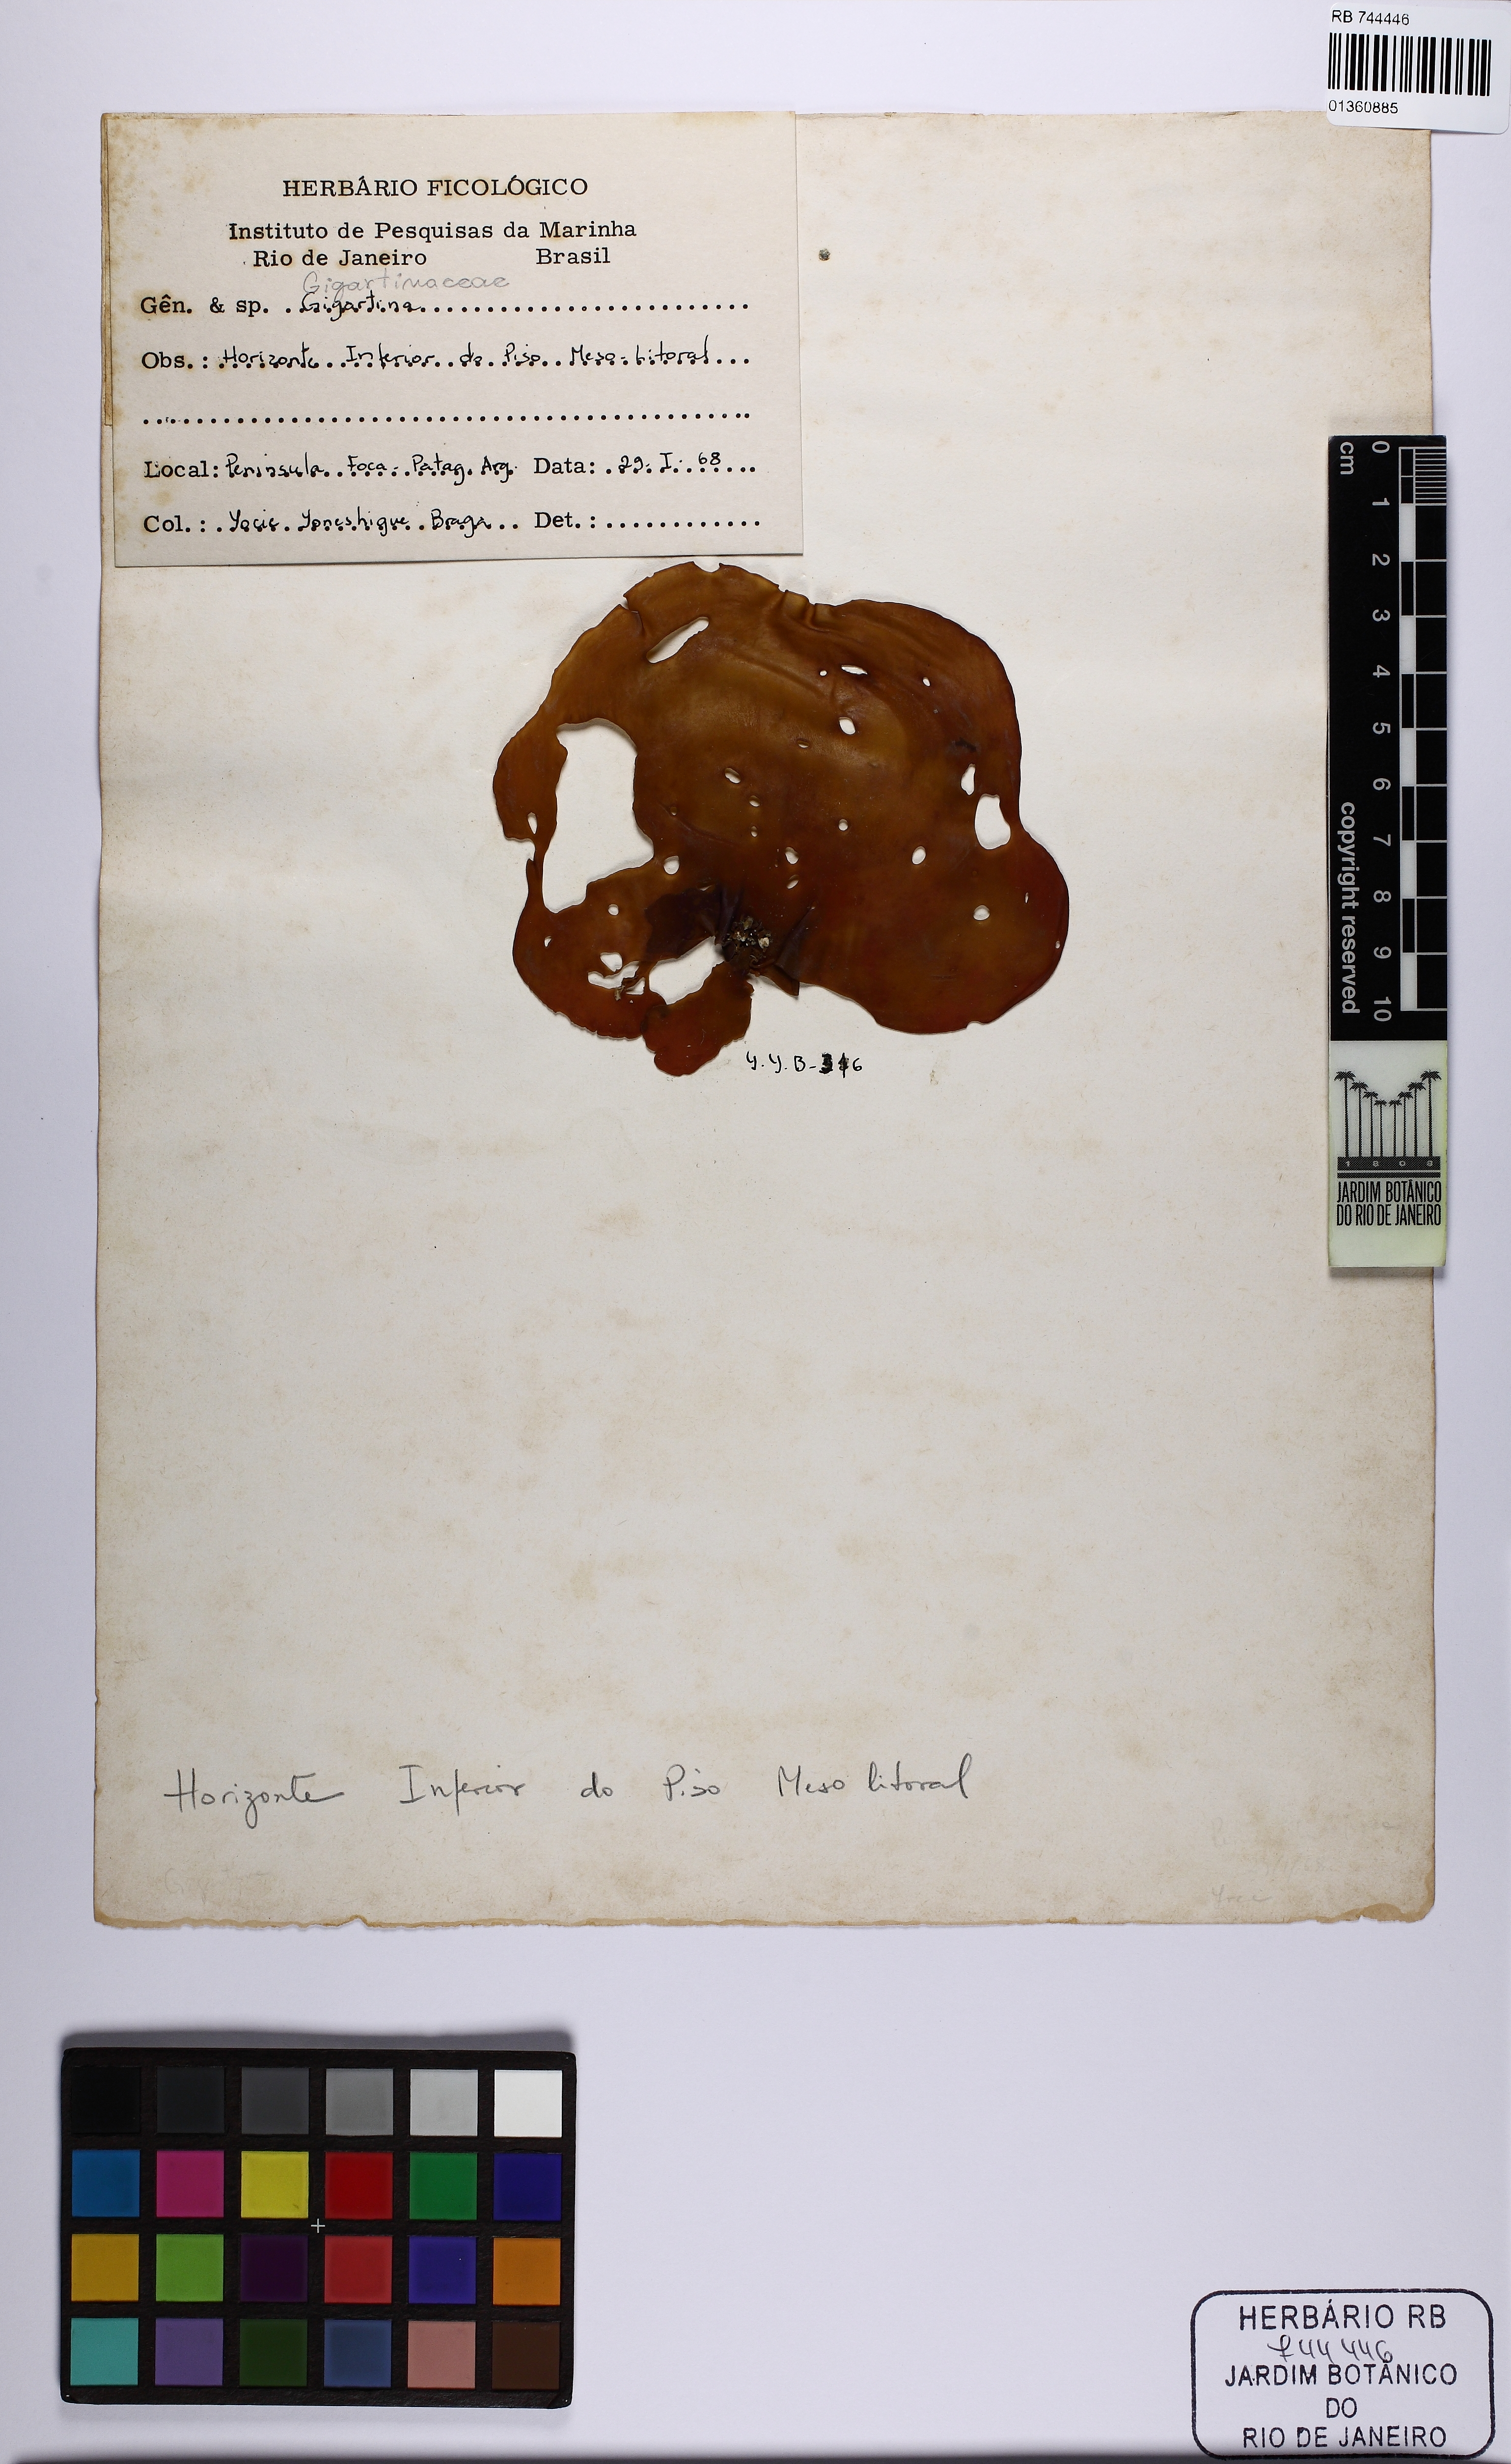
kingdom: Plantae
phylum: Rhodophyta
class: Florideophyceae
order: Gigartinales
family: Gigartinaceae
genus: Gigartina
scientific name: Gigartina
